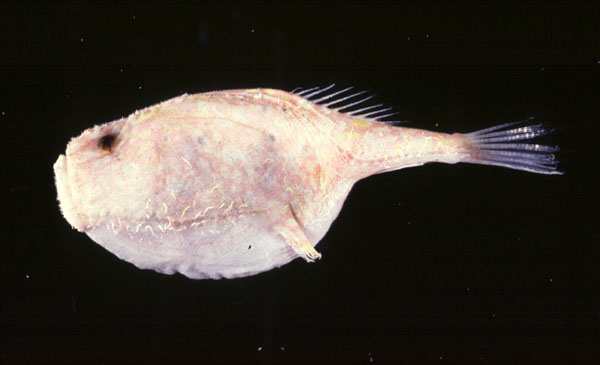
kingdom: Animalia
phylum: Chordata
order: Lophiiformes
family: Chaunacidae
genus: Chaunax
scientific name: Chaunax
